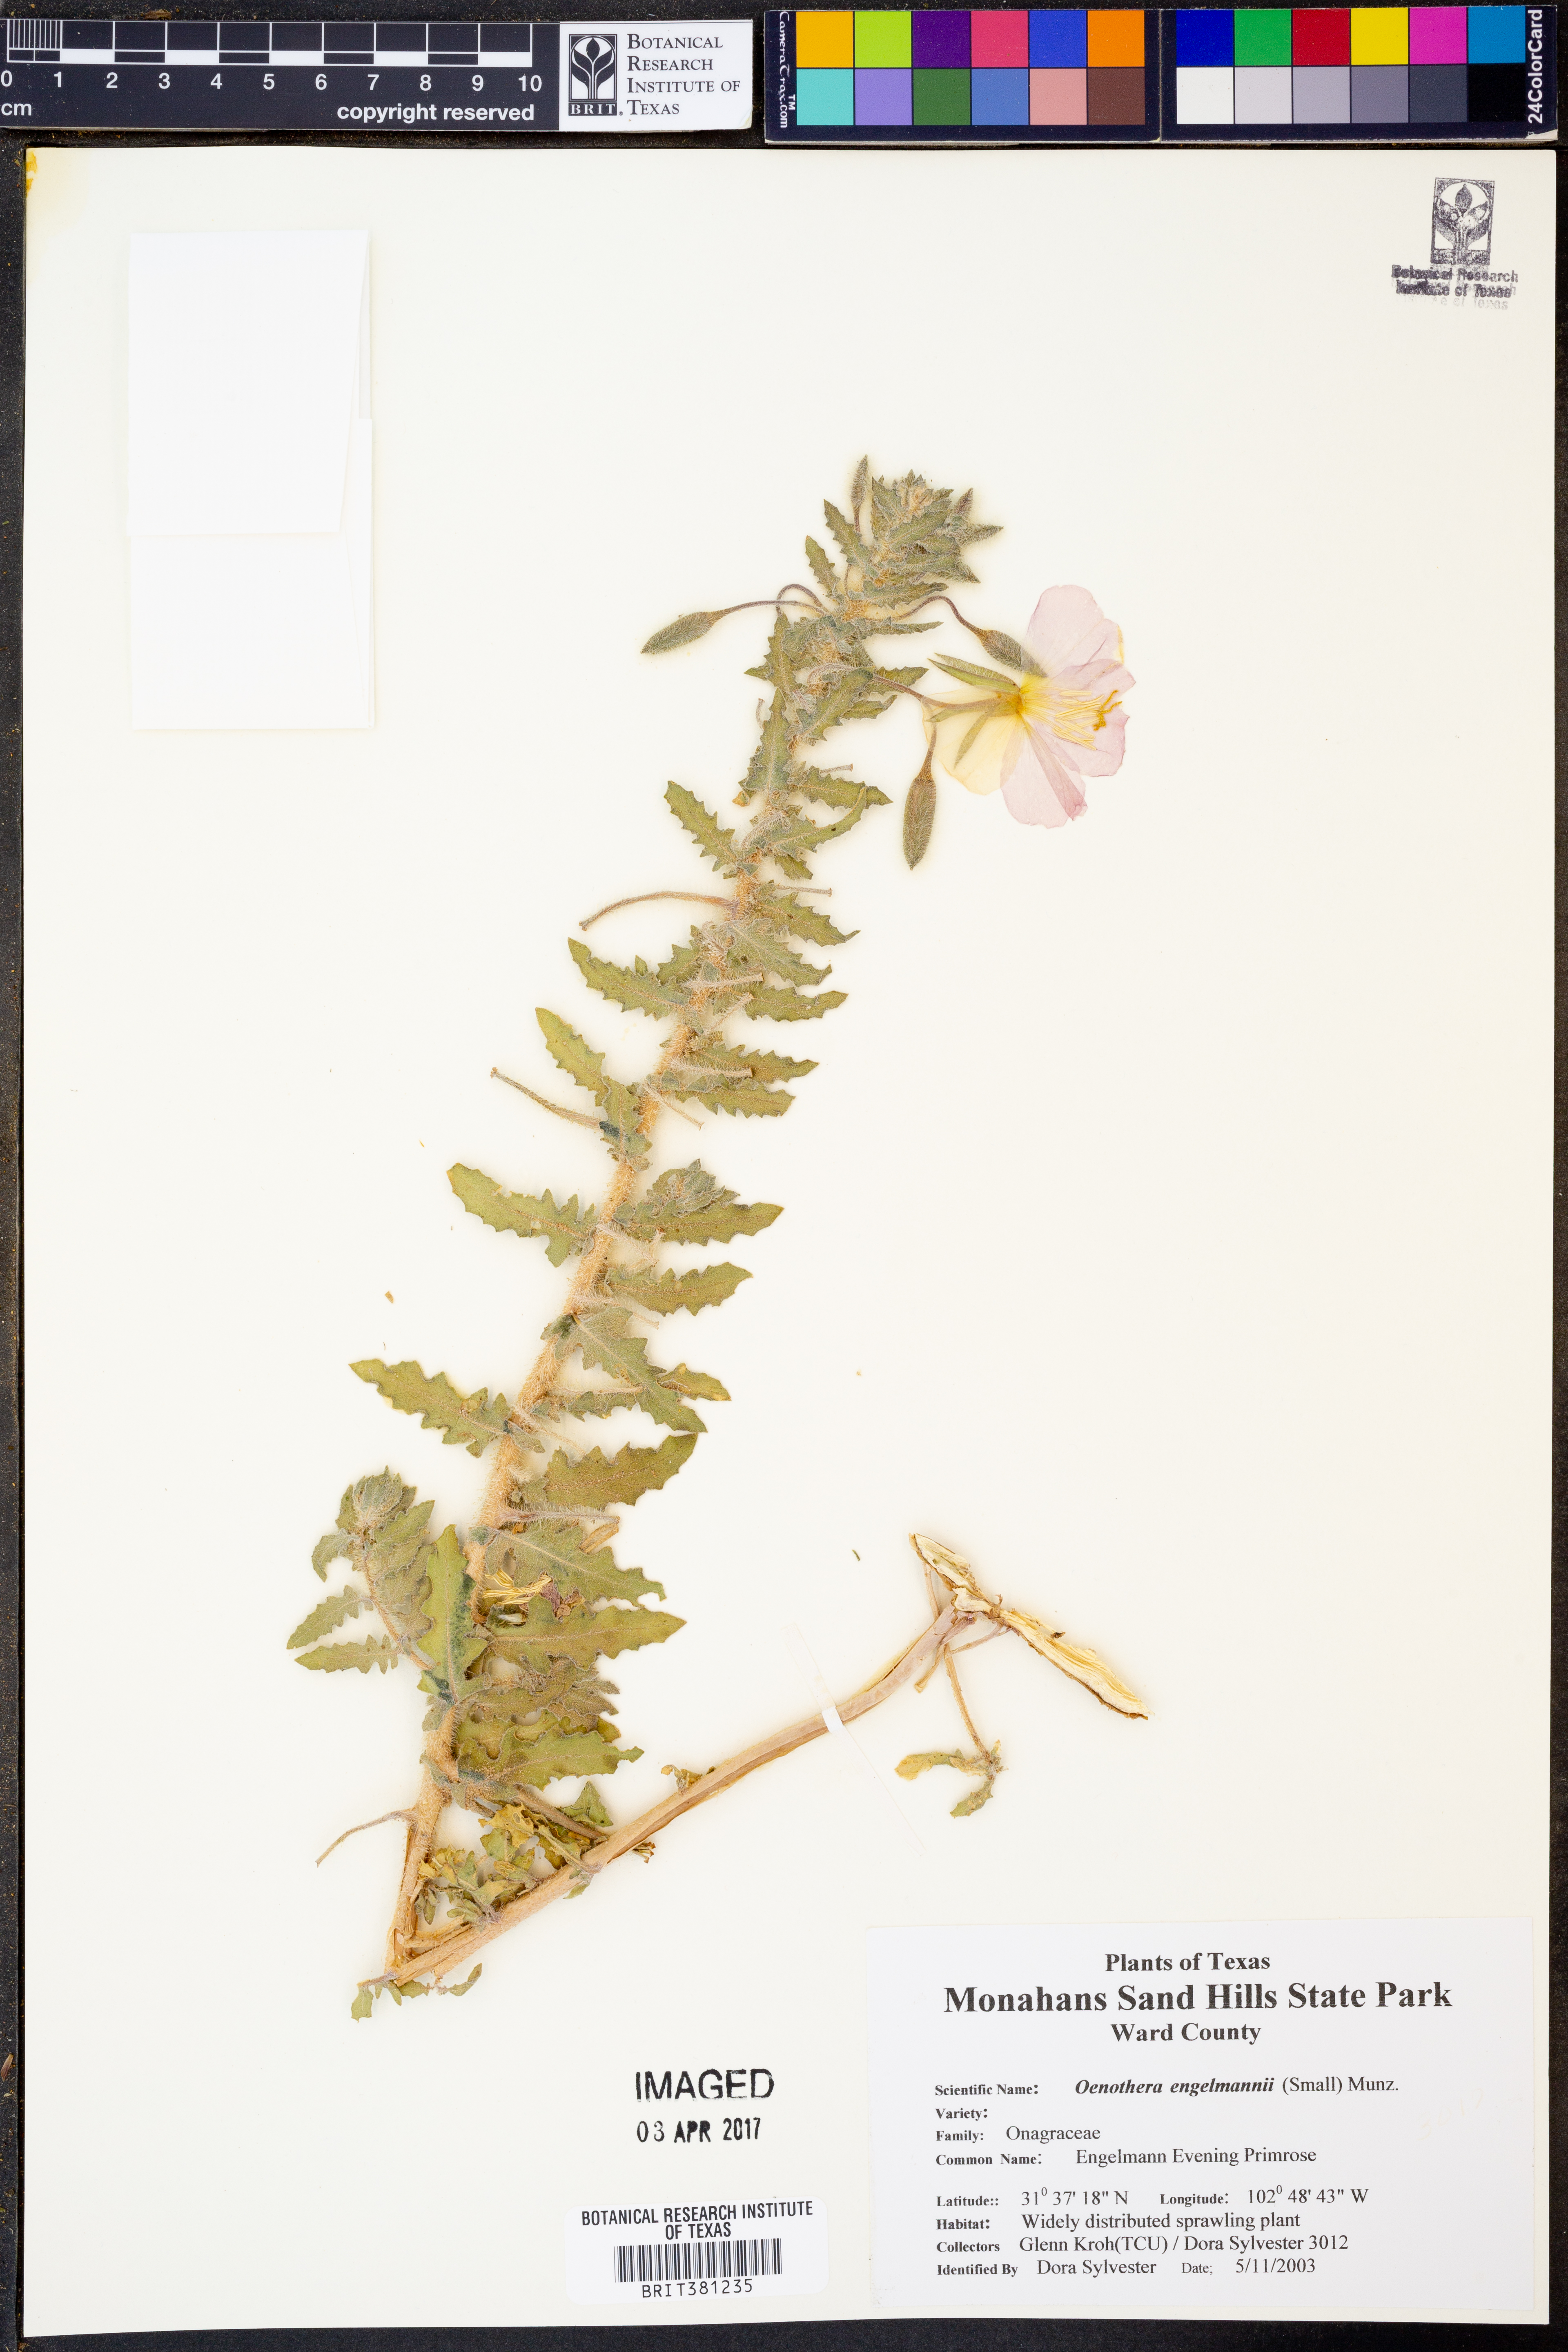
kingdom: Plantae
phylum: Tracheophyta
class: Magnoliopsida
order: Myrtales
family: Onagraceae
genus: Oenothera
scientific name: Oenothera engelmannii
